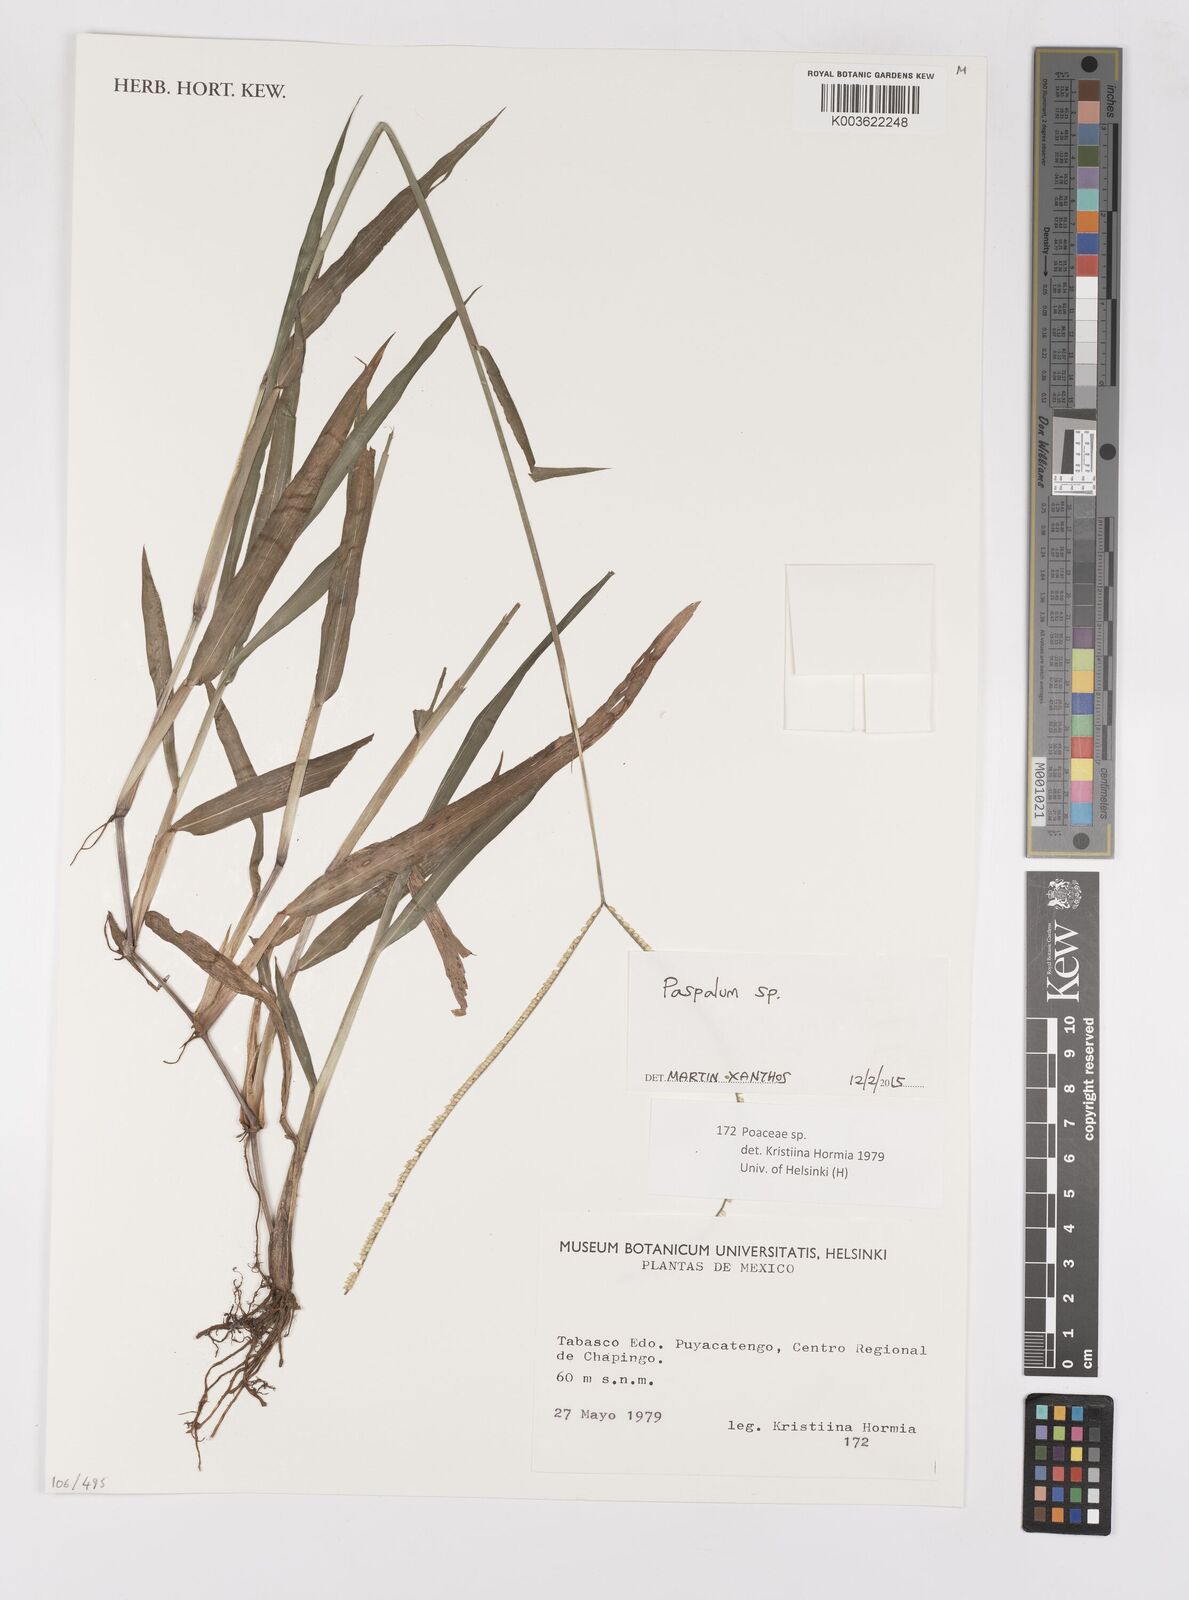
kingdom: Plantae
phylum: Tracheophyta
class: Liliopsida
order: Poales
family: Poaceae
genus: Paspalum
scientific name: Paspalum
